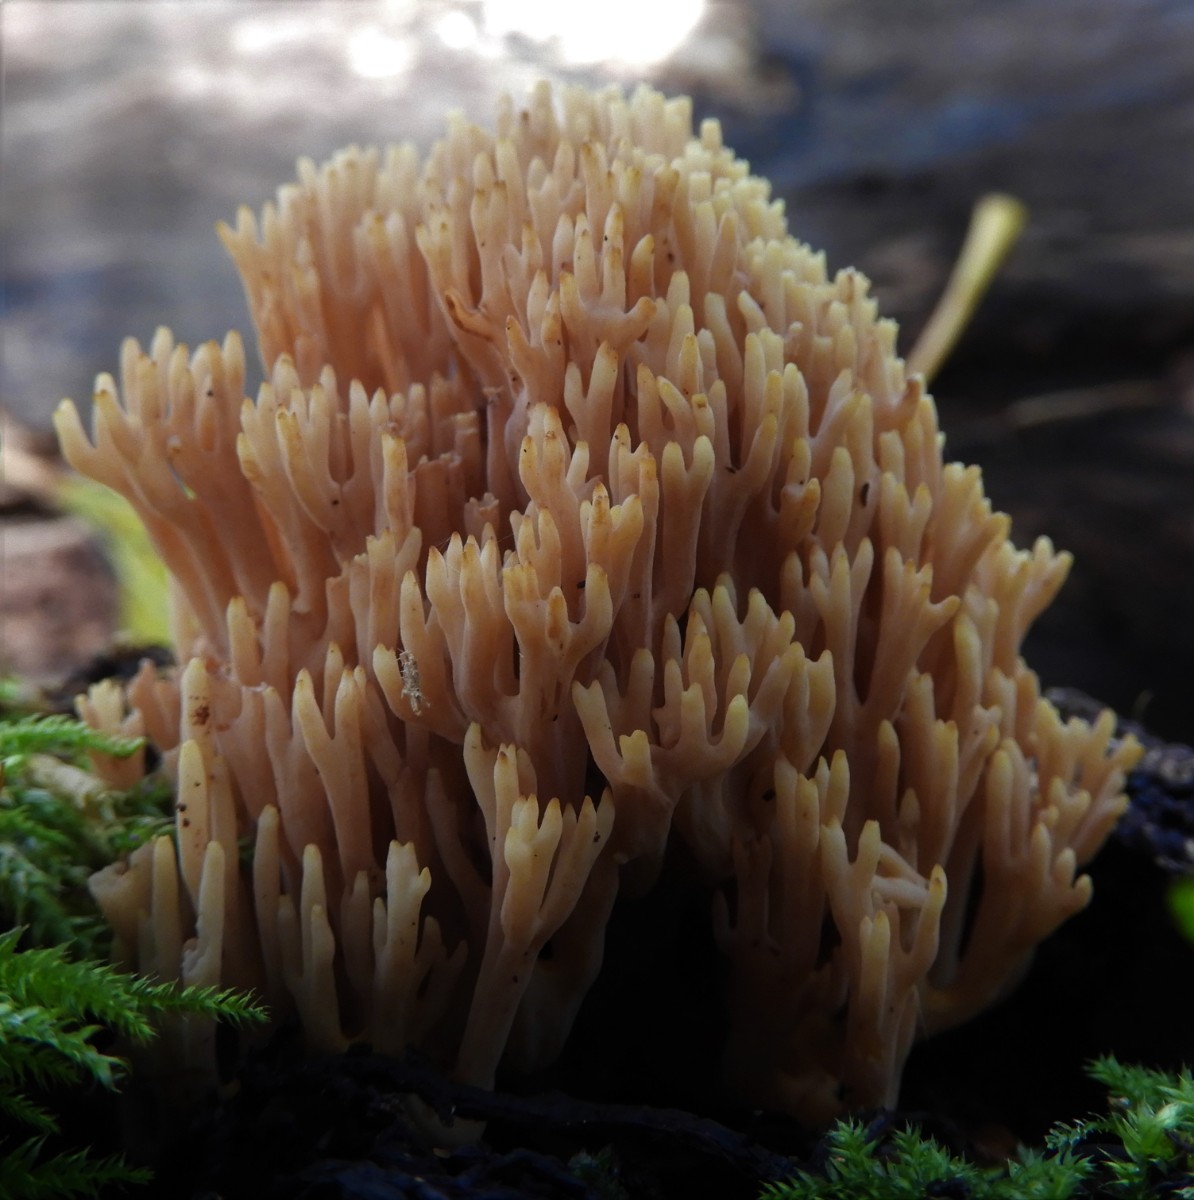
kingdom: Fungi
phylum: Basidiomycota
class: Agaricomycetes
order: Gomphales
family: Gomphaceae
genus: Ramaria
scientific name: Ramaria stricta
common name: rank koralsvamp
